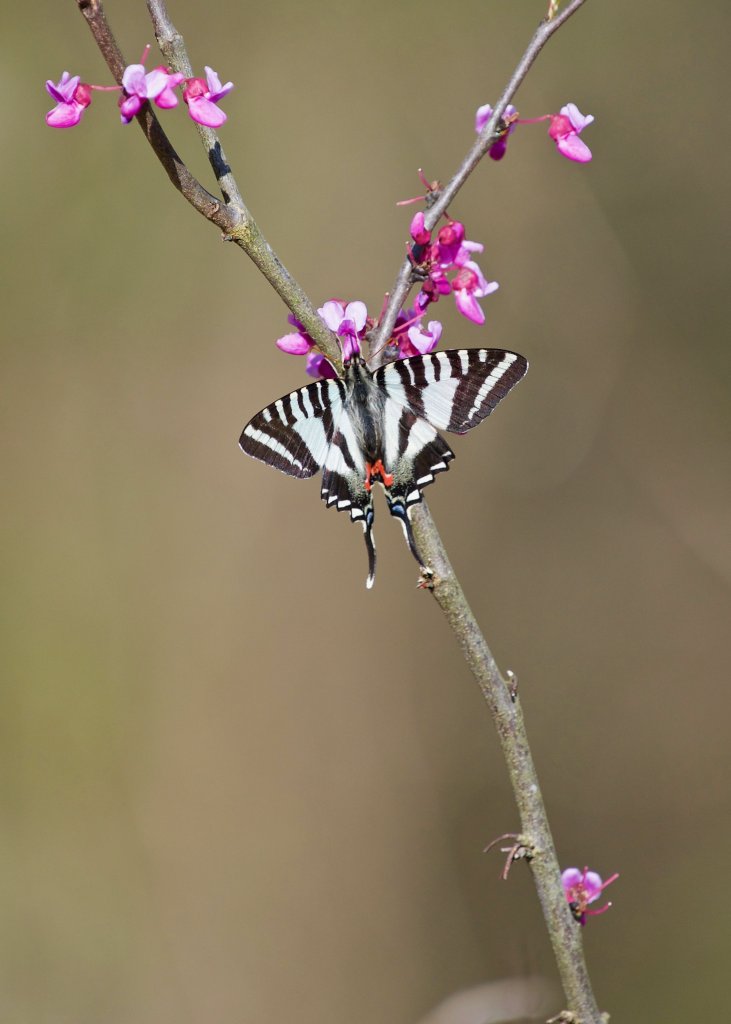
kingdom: Animalia
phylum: Arthropoda
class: Insecta
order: Lepidoptera
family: Papilionidae
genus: Protographium
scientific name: Protographium marcellus
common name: Zebra Swallowtail
